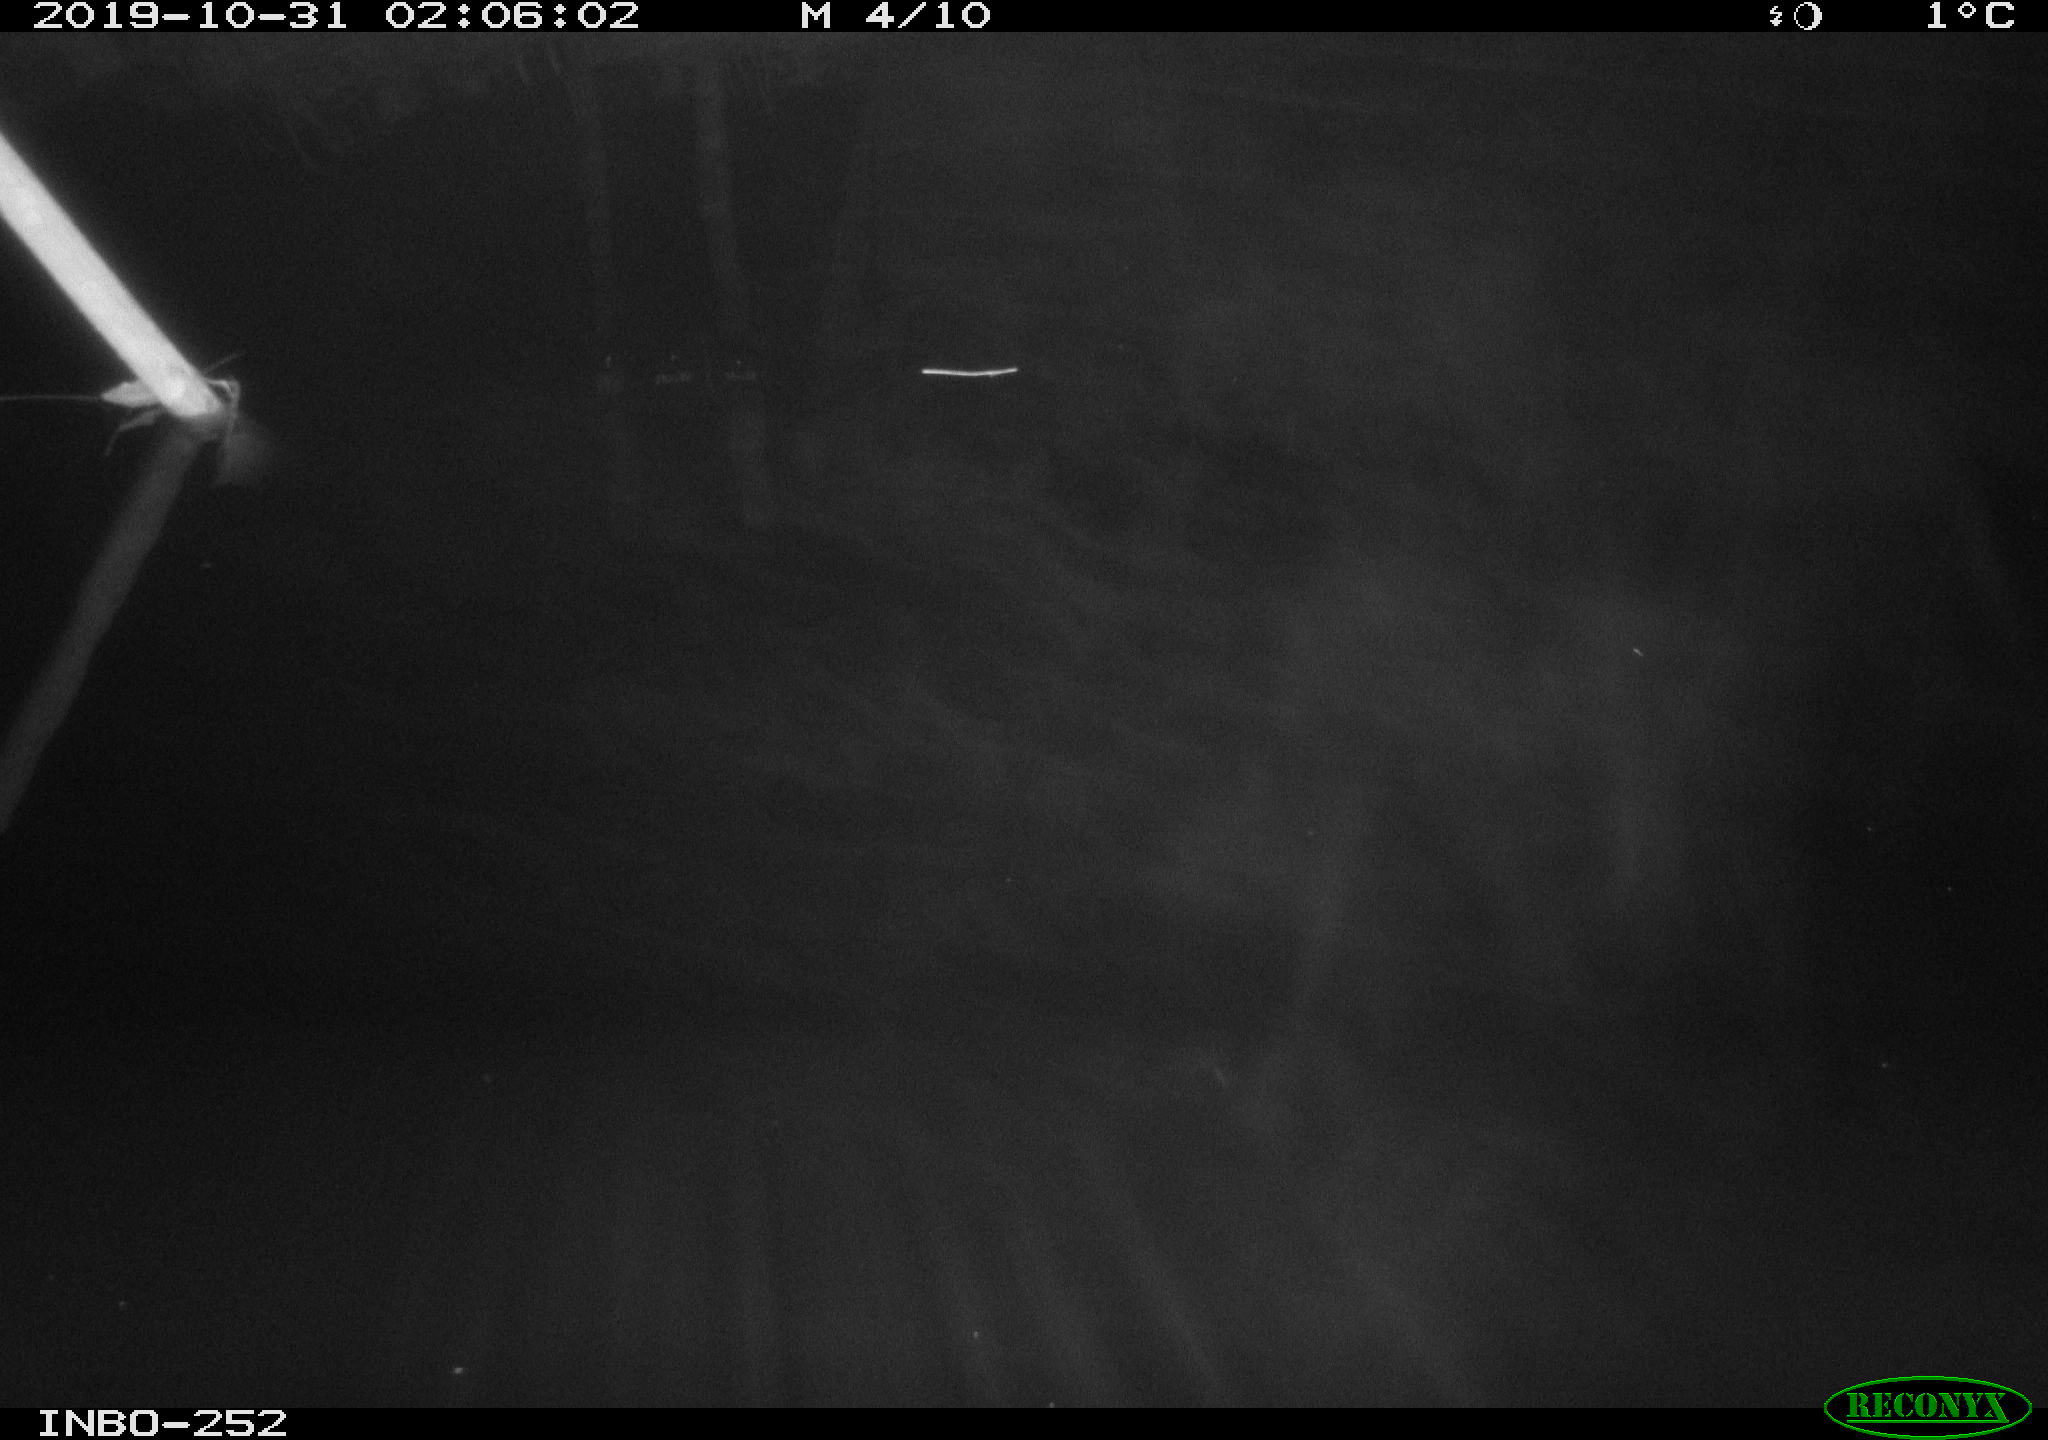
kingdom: Animalia
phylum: Chordata
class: Aves
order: Anseriformes
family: Anatidae
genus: Anas
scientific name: Anas platyrhynchos
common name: Mallard
